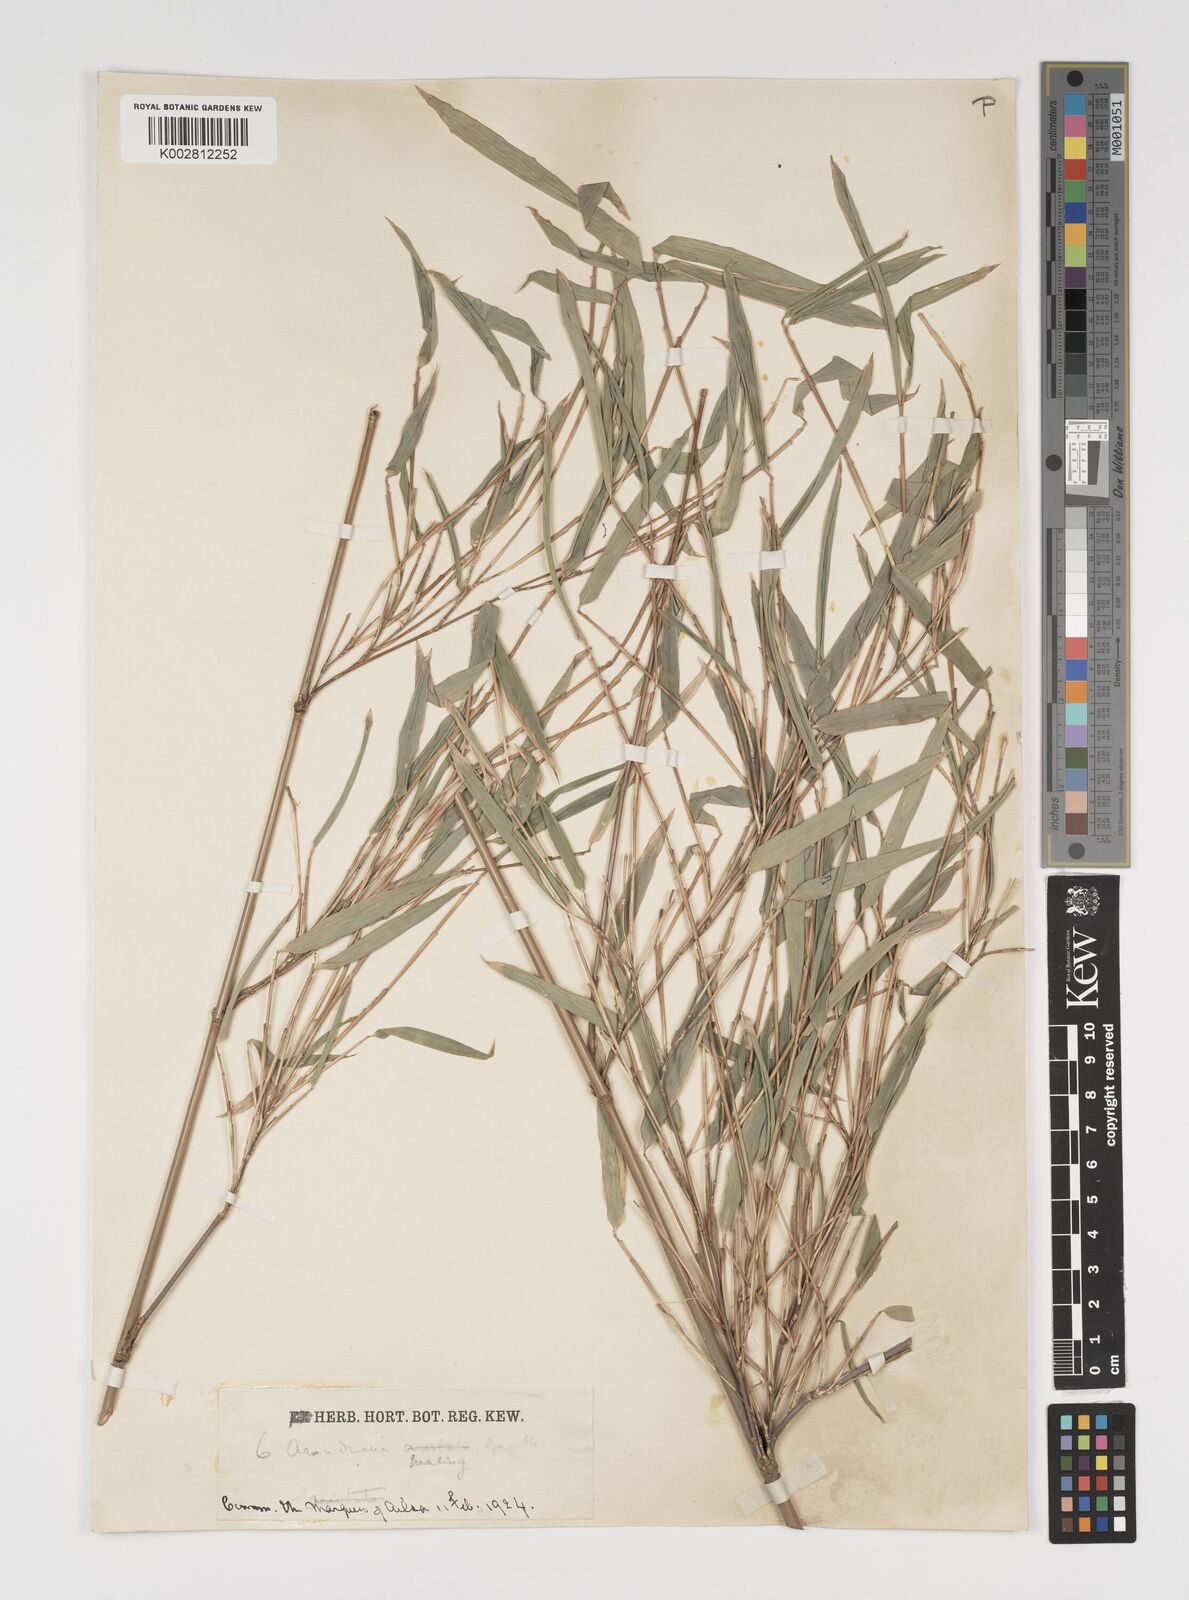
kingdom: Plantae
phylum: Tracheophyta
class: Liliopsida
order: Poales
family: Poaceae
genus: Yushania
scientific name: Yushania maling
